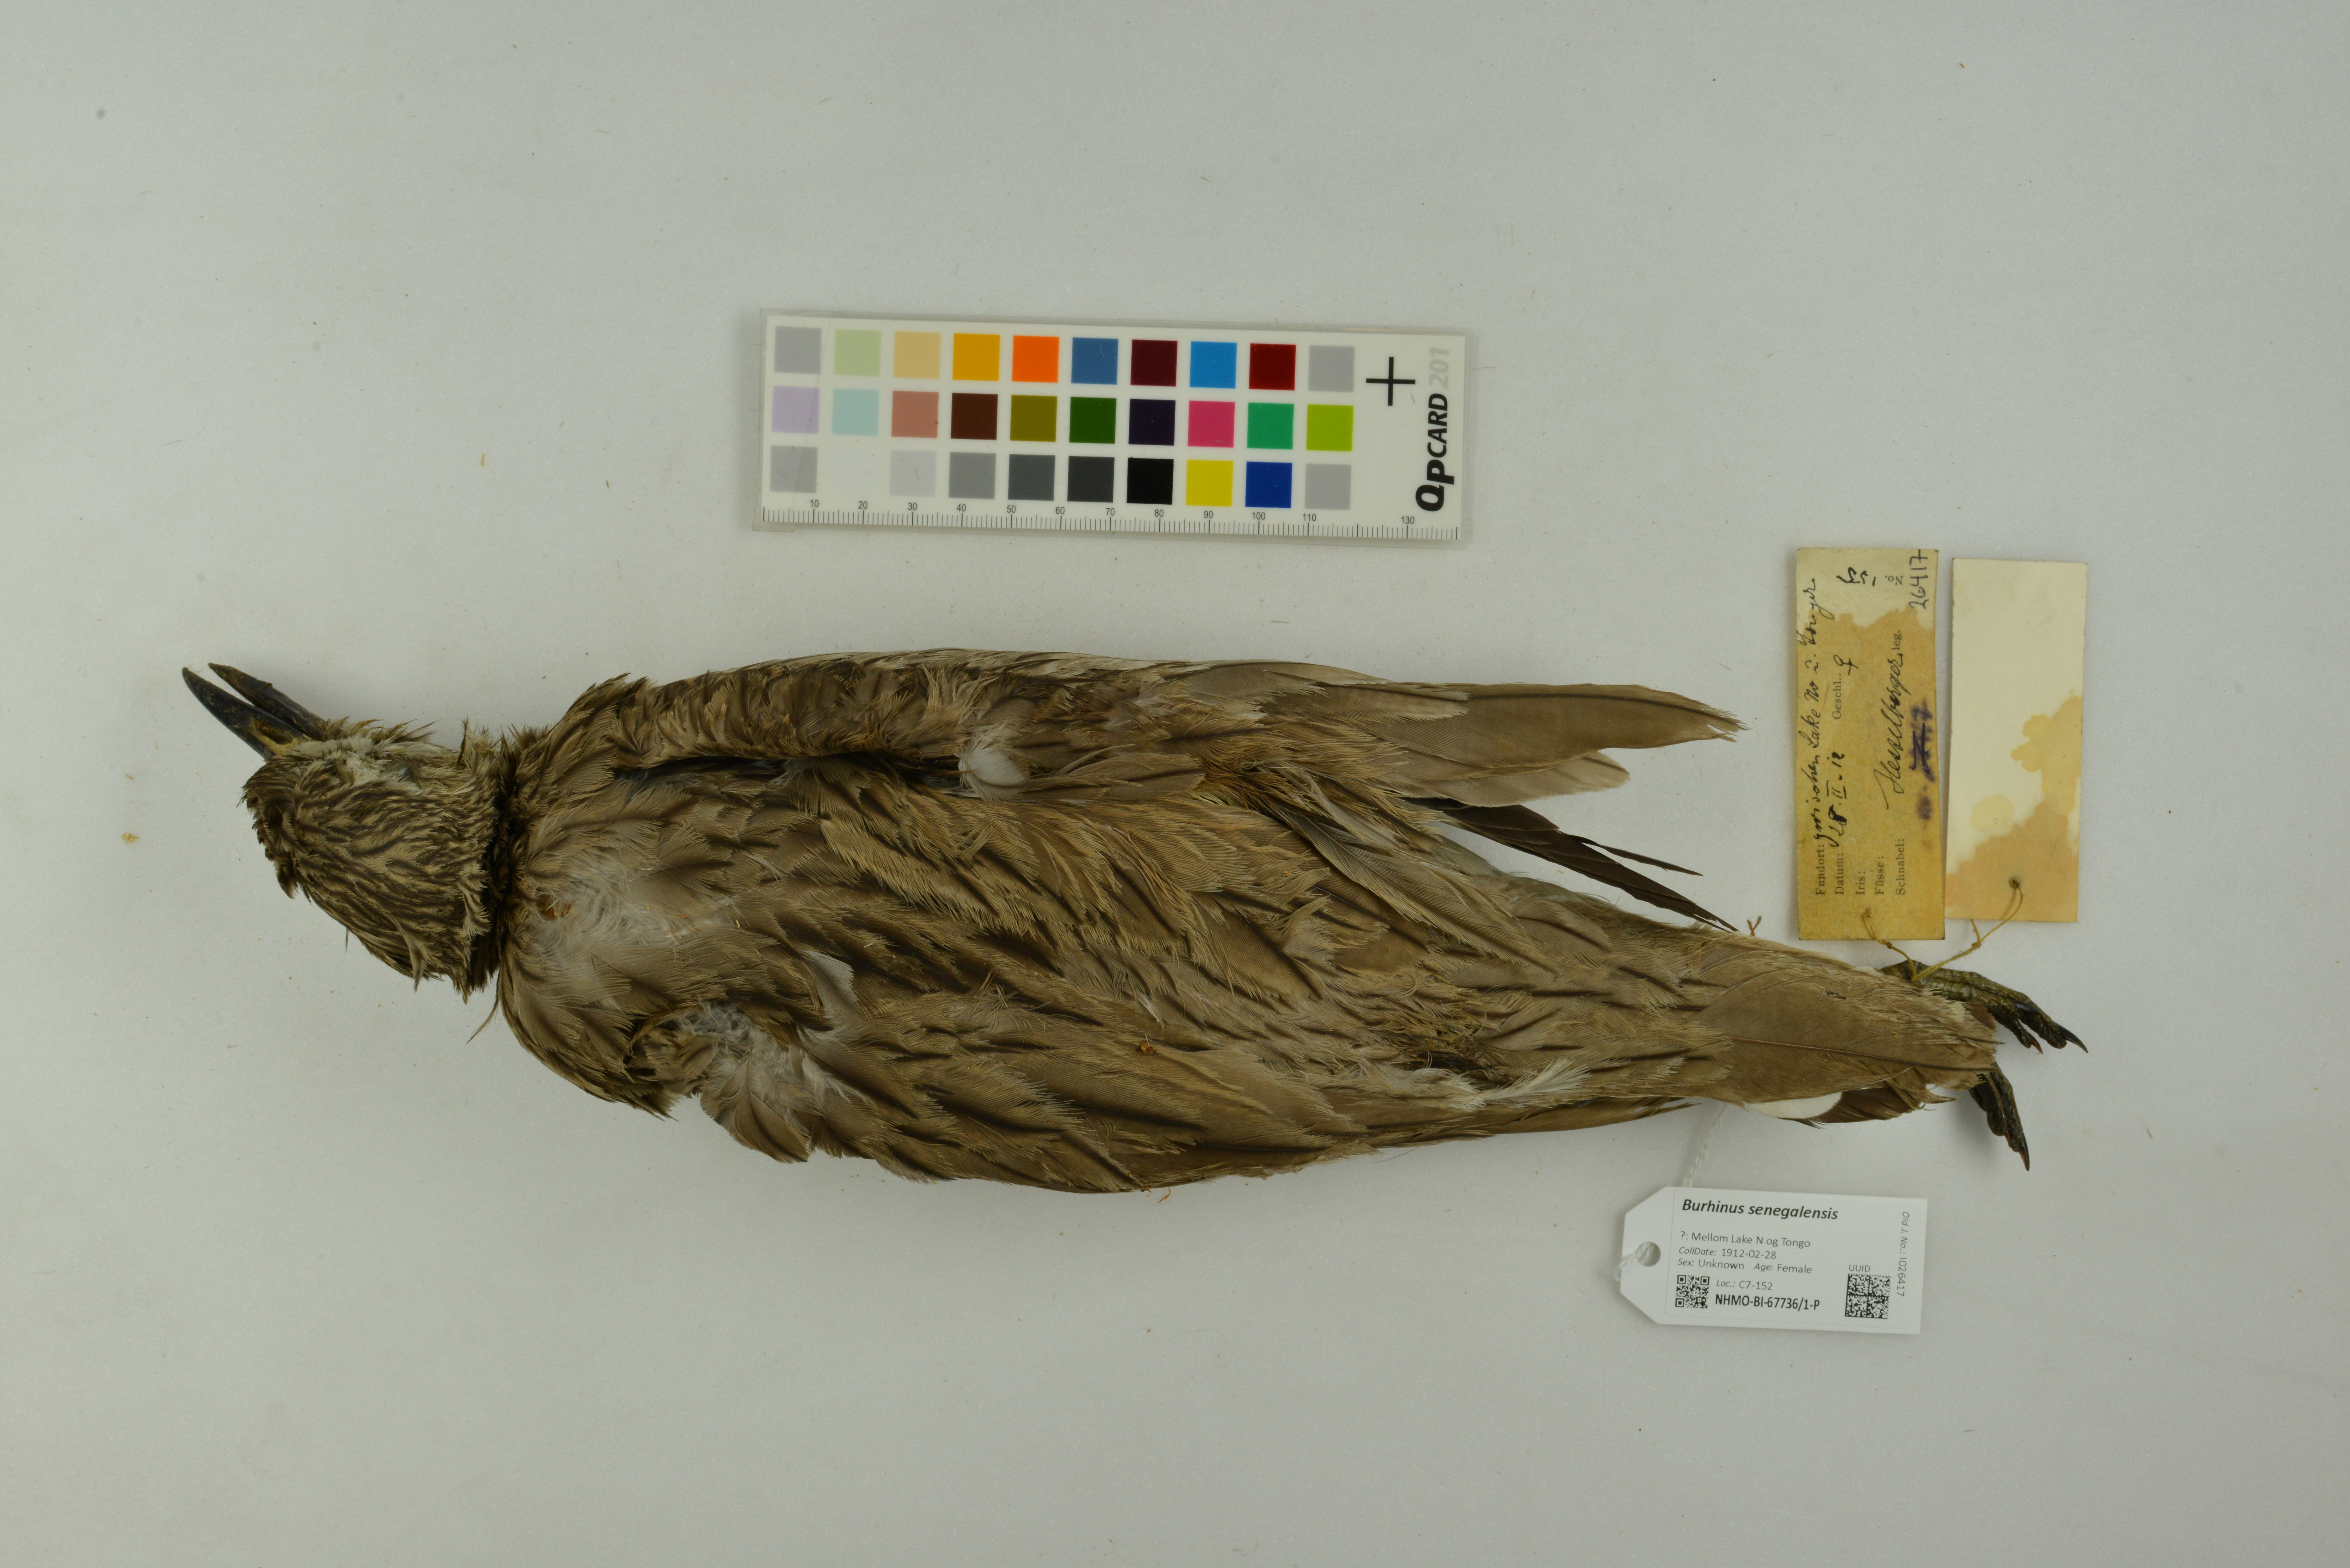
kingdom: Animalia
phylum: Chordata
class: Aves
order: Charadriiformes
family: Burhinidae
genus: Burhinus
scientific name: Burhinus senegalensis
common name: Senegal thick-knee
